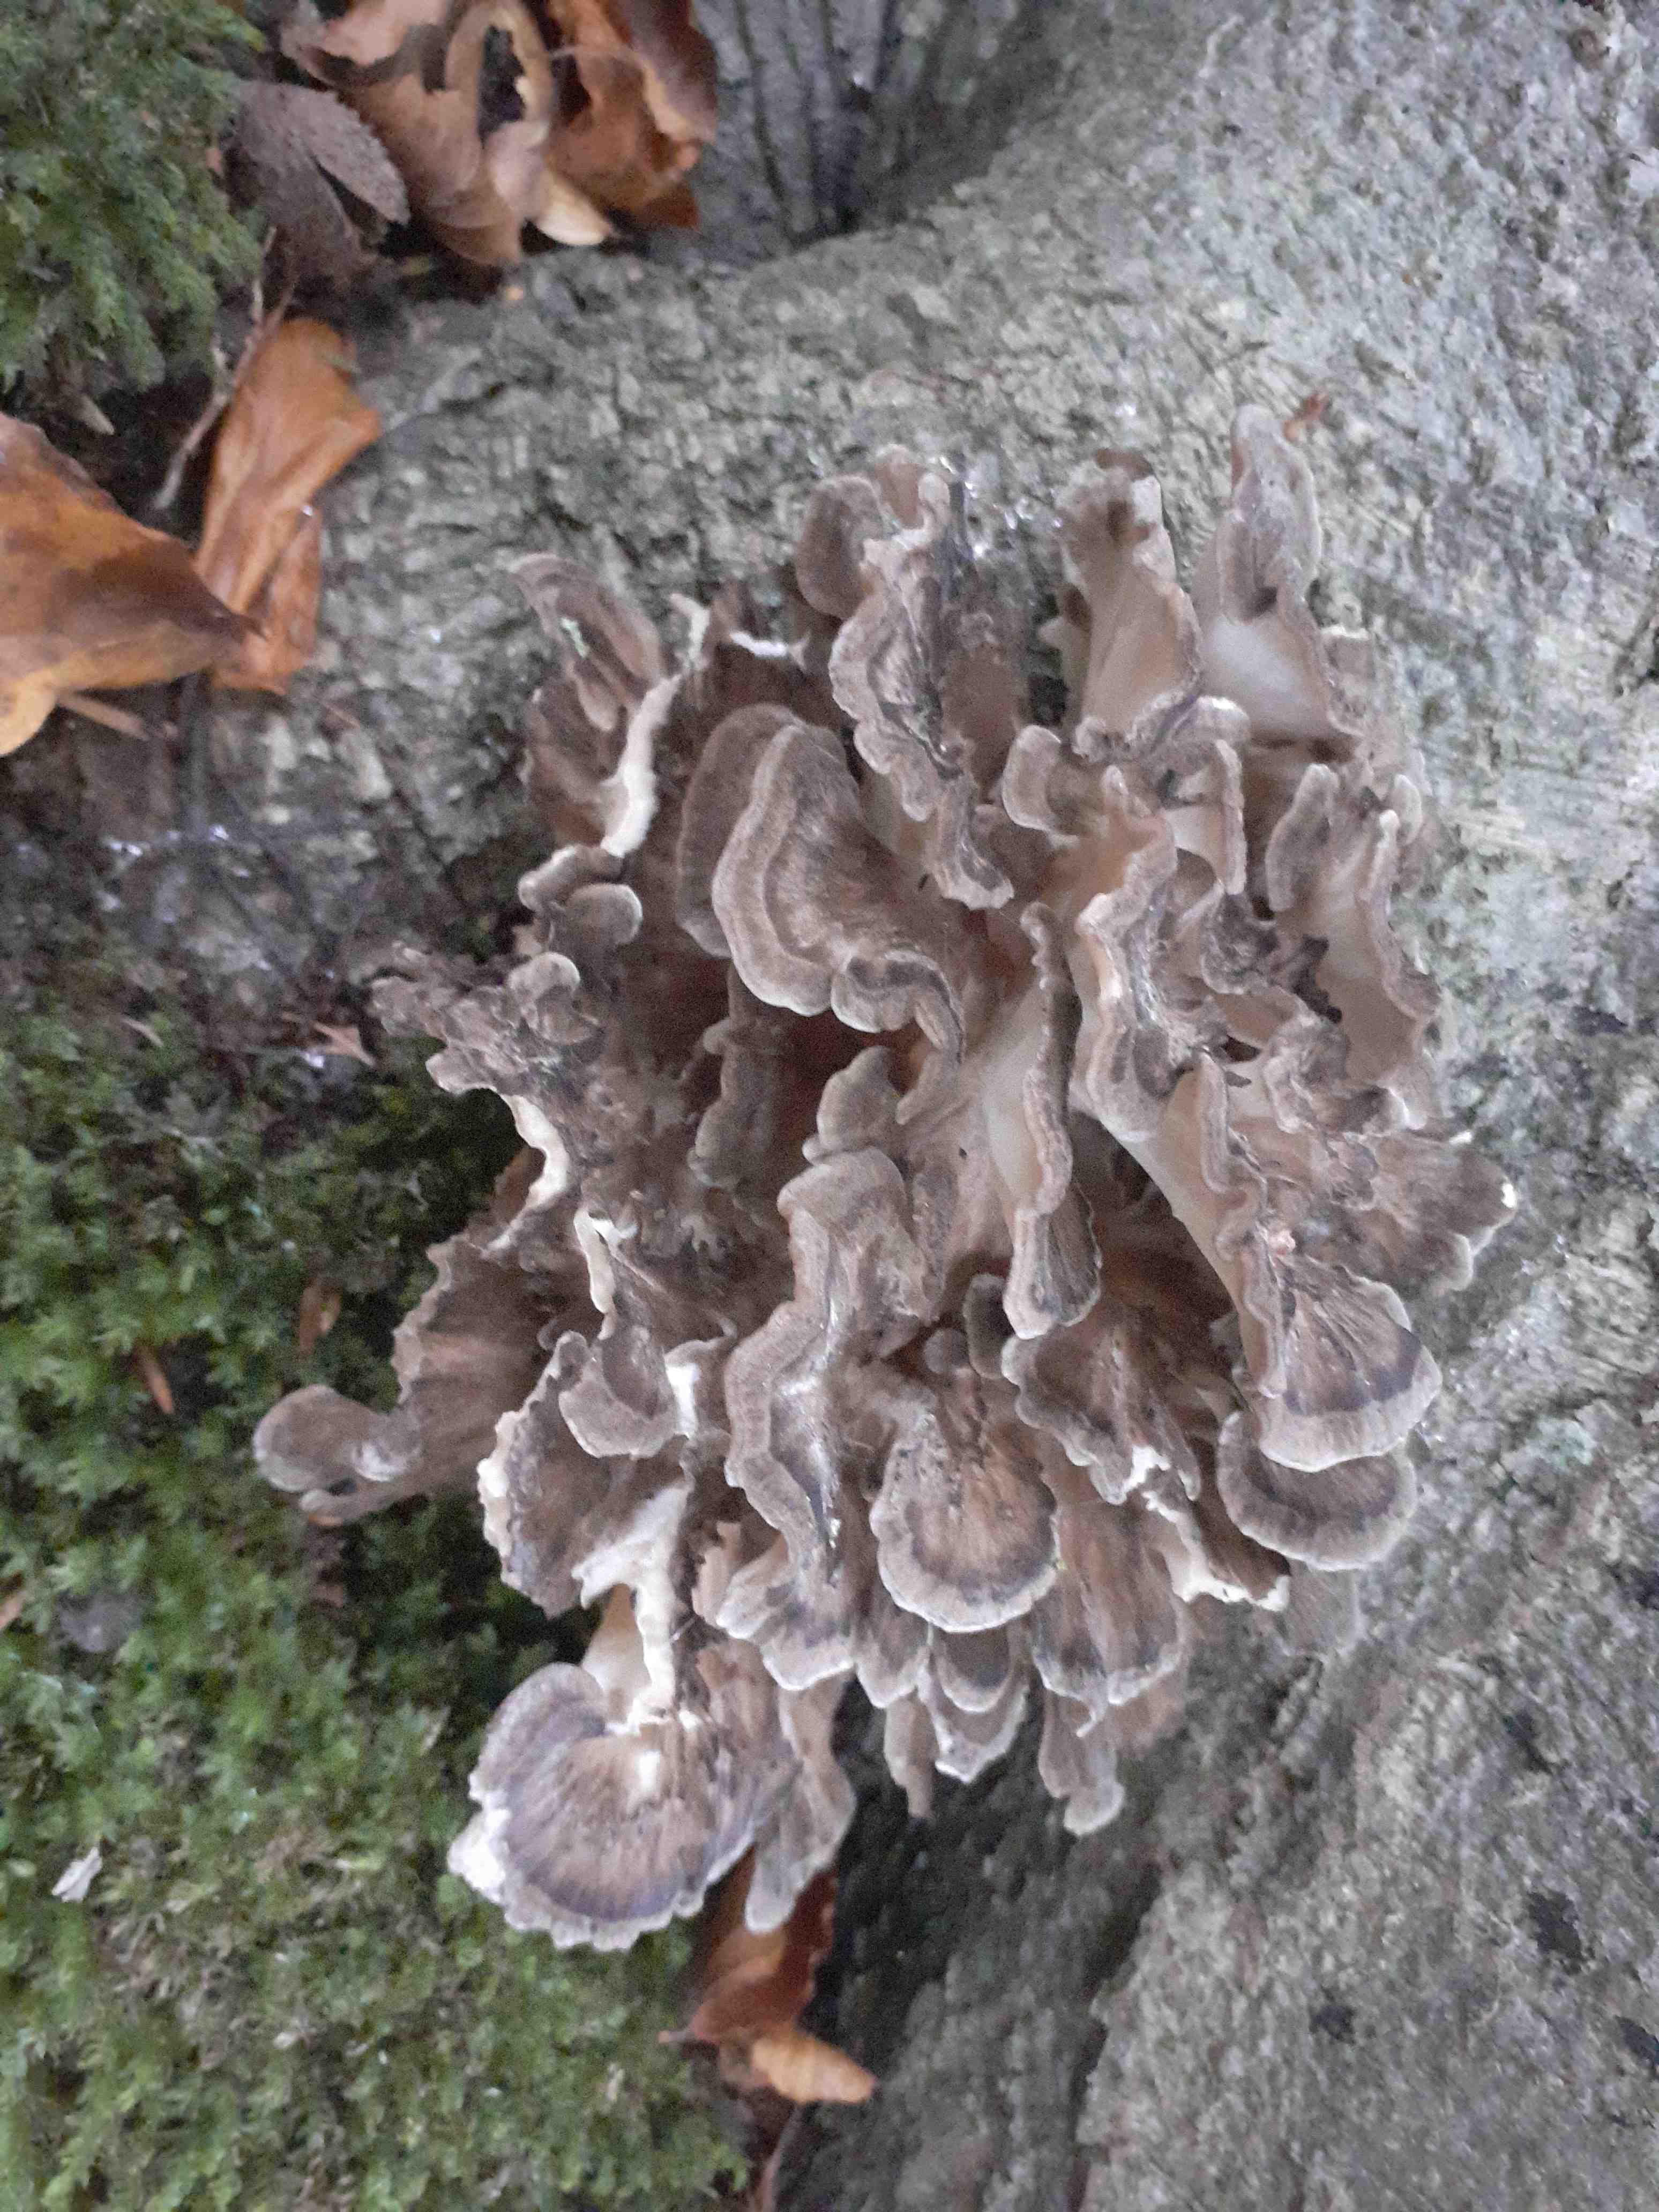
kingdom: Fungi
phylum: Basidiomycota
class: Agaricomycetes
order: Polyporales
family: Grifolaceae
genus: Grifola
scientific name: Grifola frondosa
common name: tueporesvamp
